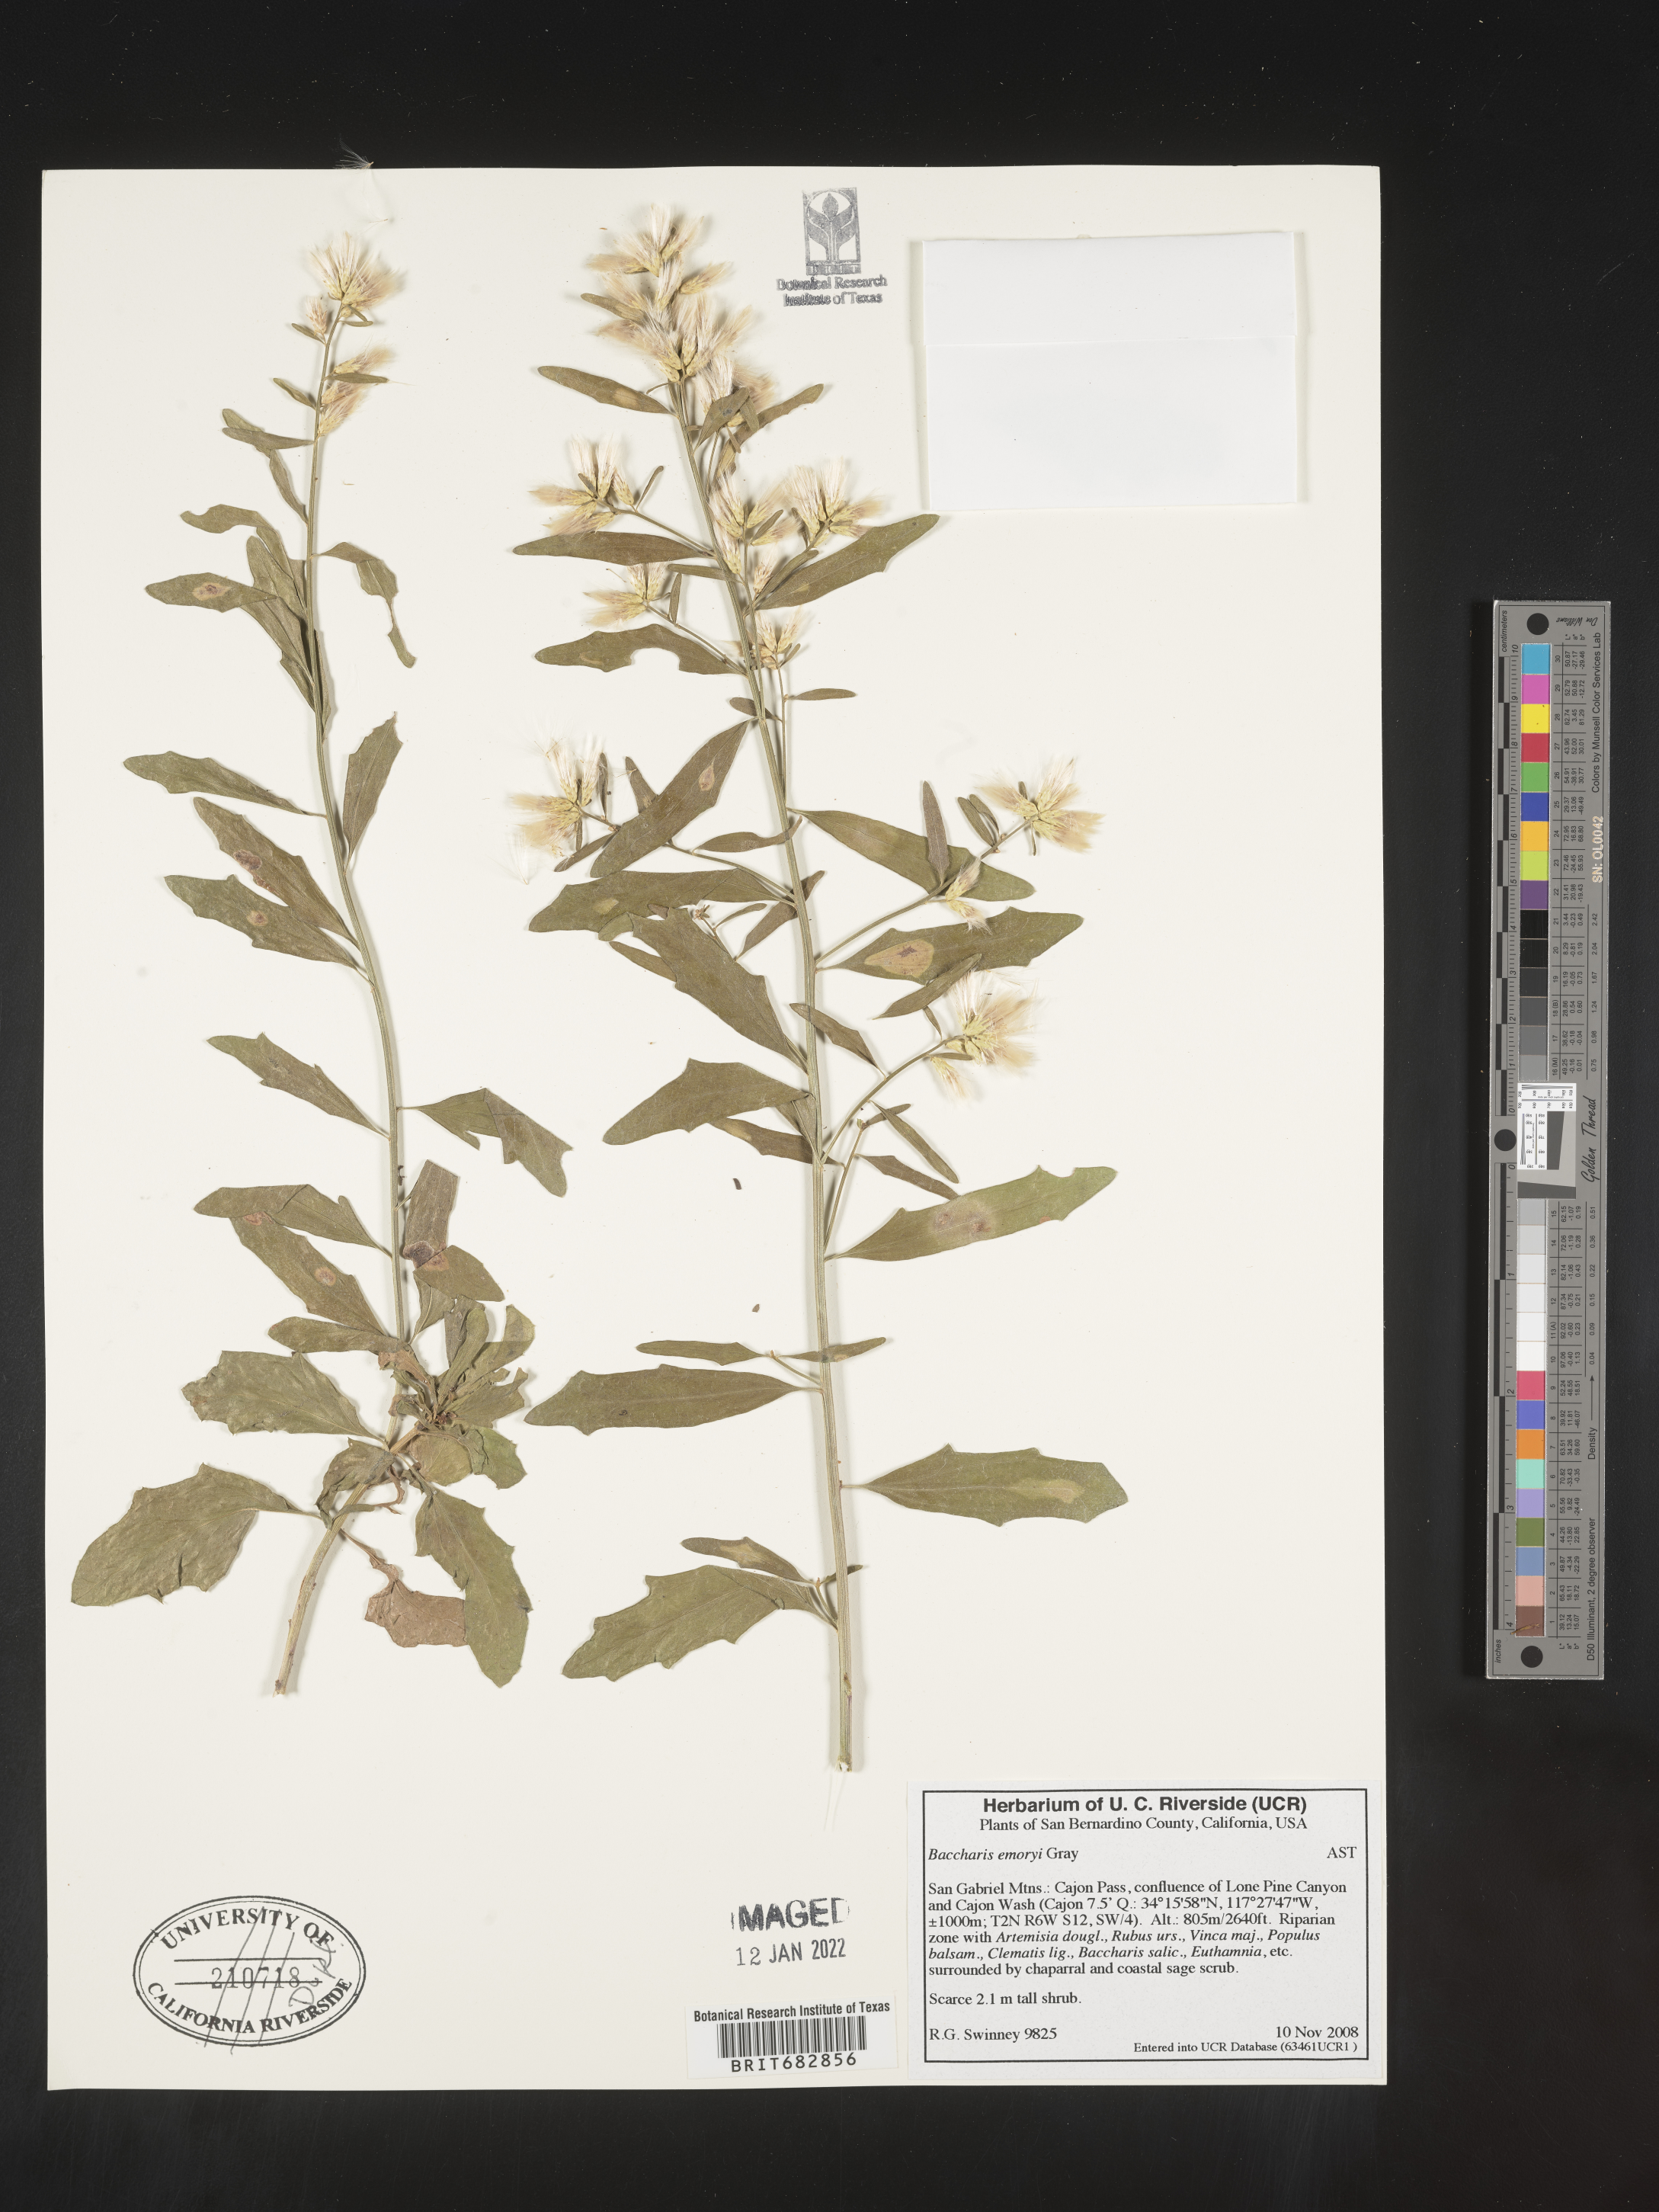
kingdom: Plantae
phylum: Tracheophyta
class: Magnoliopsida
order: Asterales
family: Asteraceae
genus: Baccharis
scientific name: Baccharis salicina
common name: Willow baccharis
